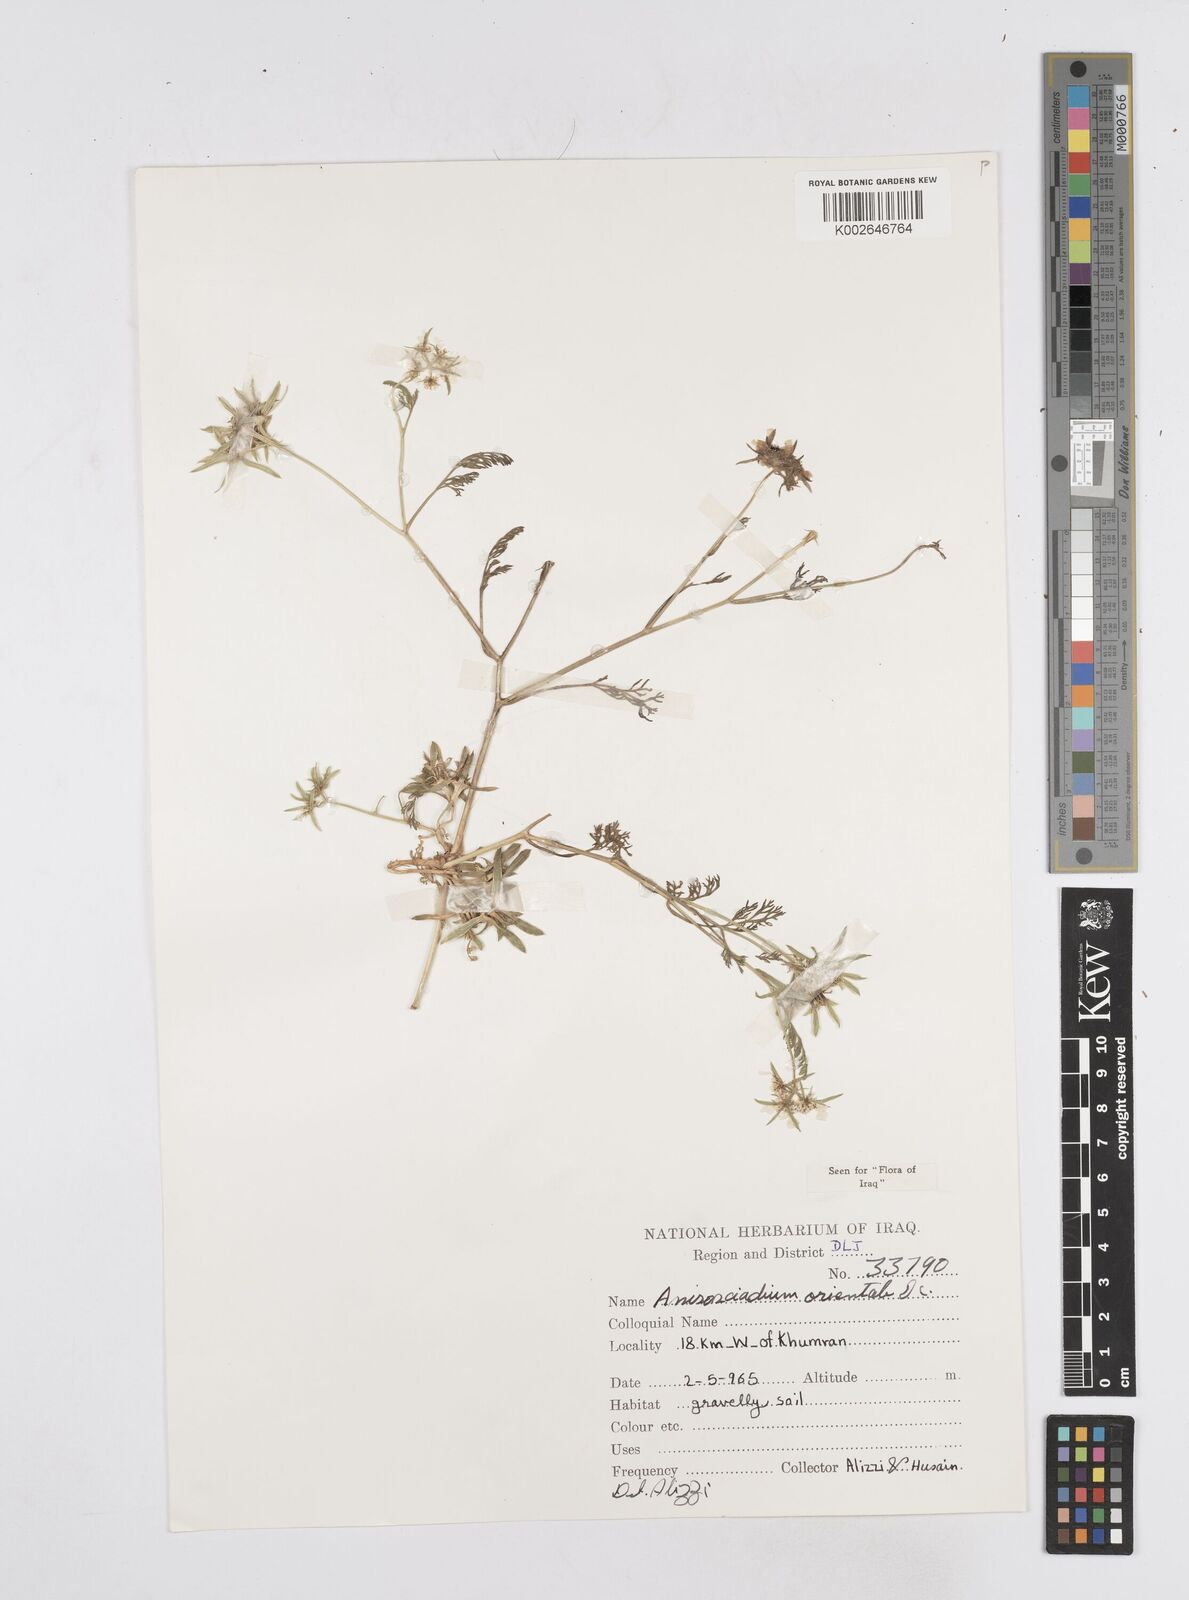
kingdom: Plantae
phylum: Tracheophyta
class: Magnoliopsida
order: Apiales
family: Apiaceae
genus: Anisosciadium
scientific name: Anisosciadium orientale
